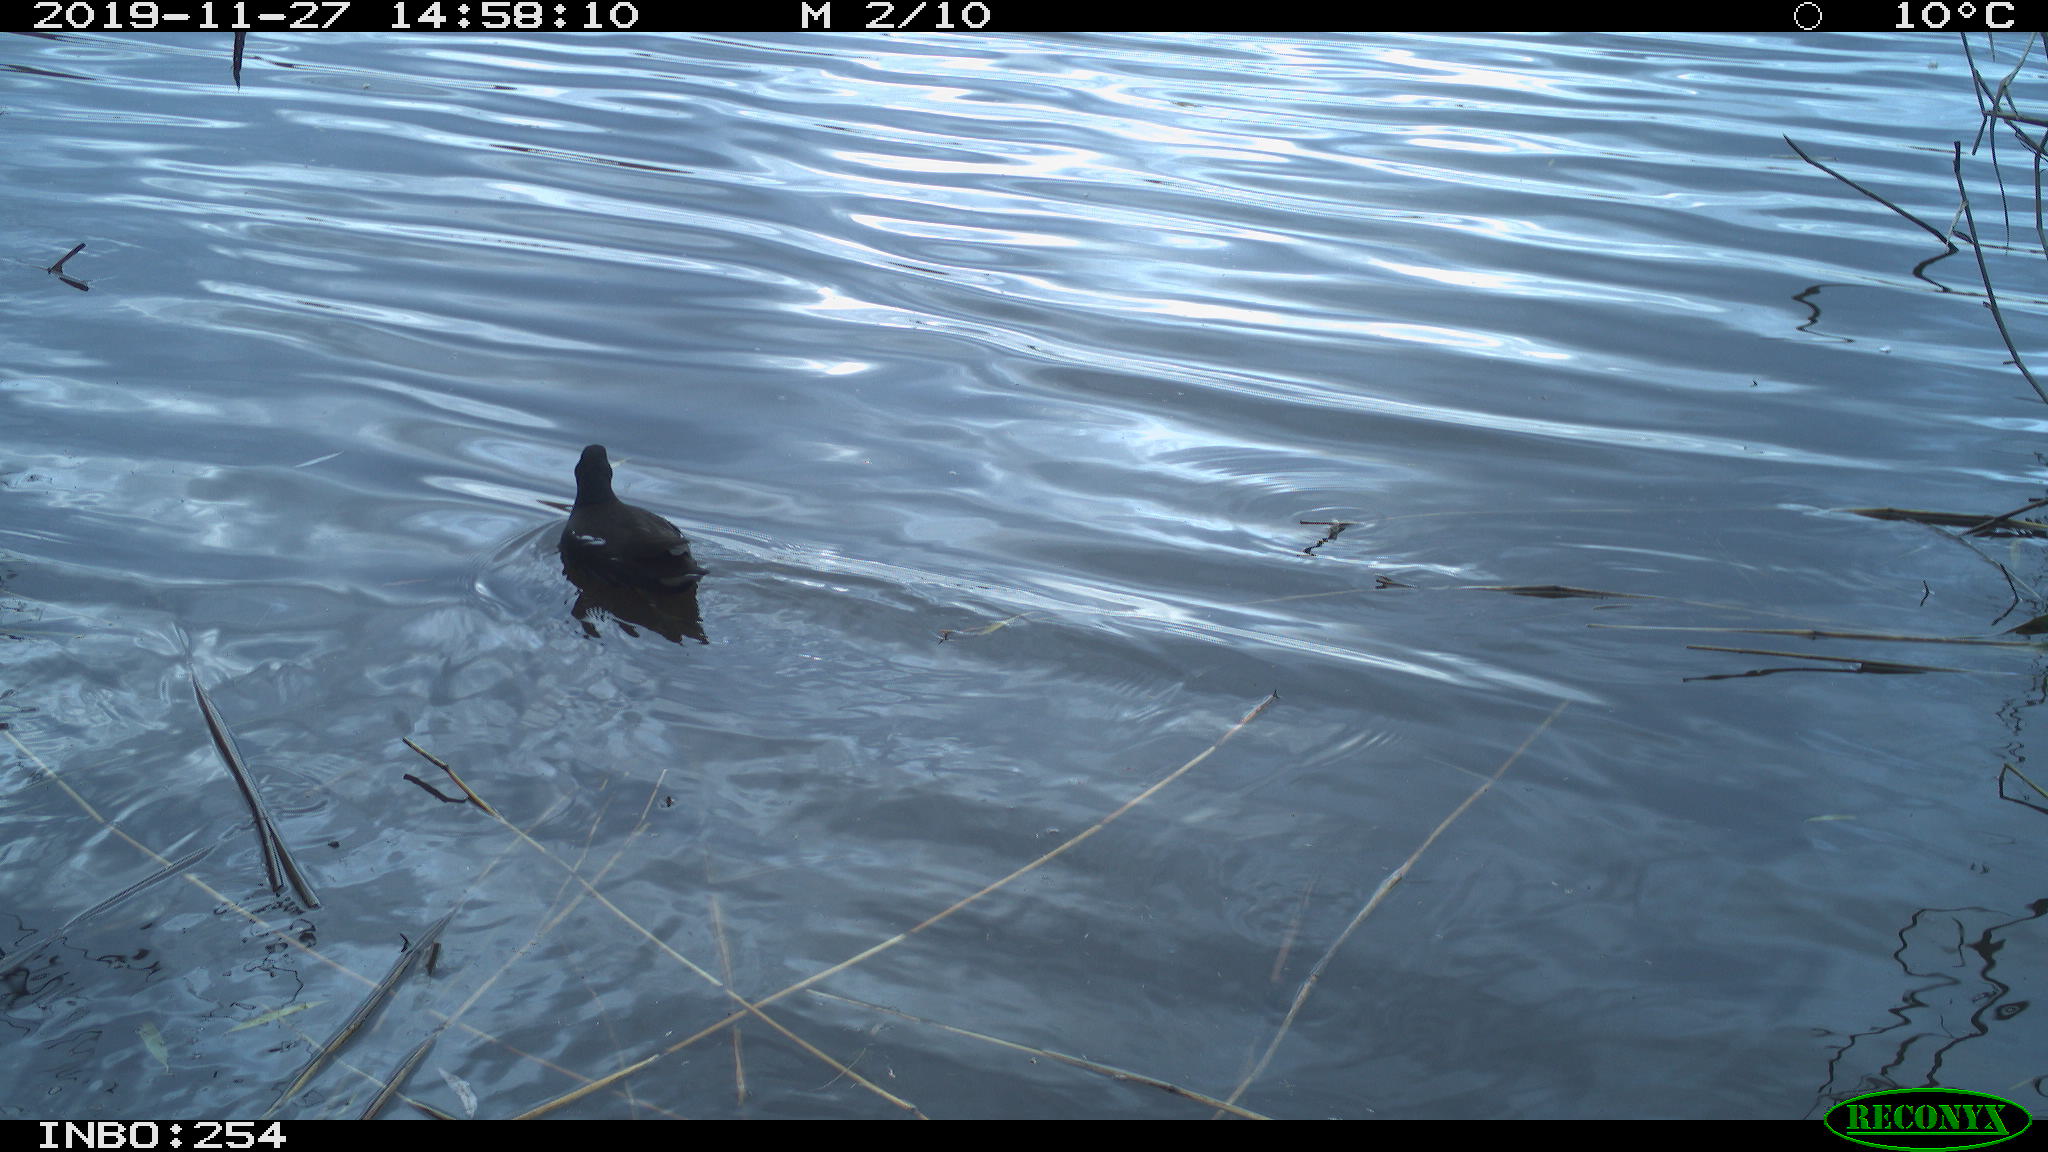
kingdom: Animalia
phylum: Chordata
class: Aves
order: Gruiformes
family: Rallidae
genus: Gallinula
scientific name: Gallinula chloropus
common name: Common moorhen
